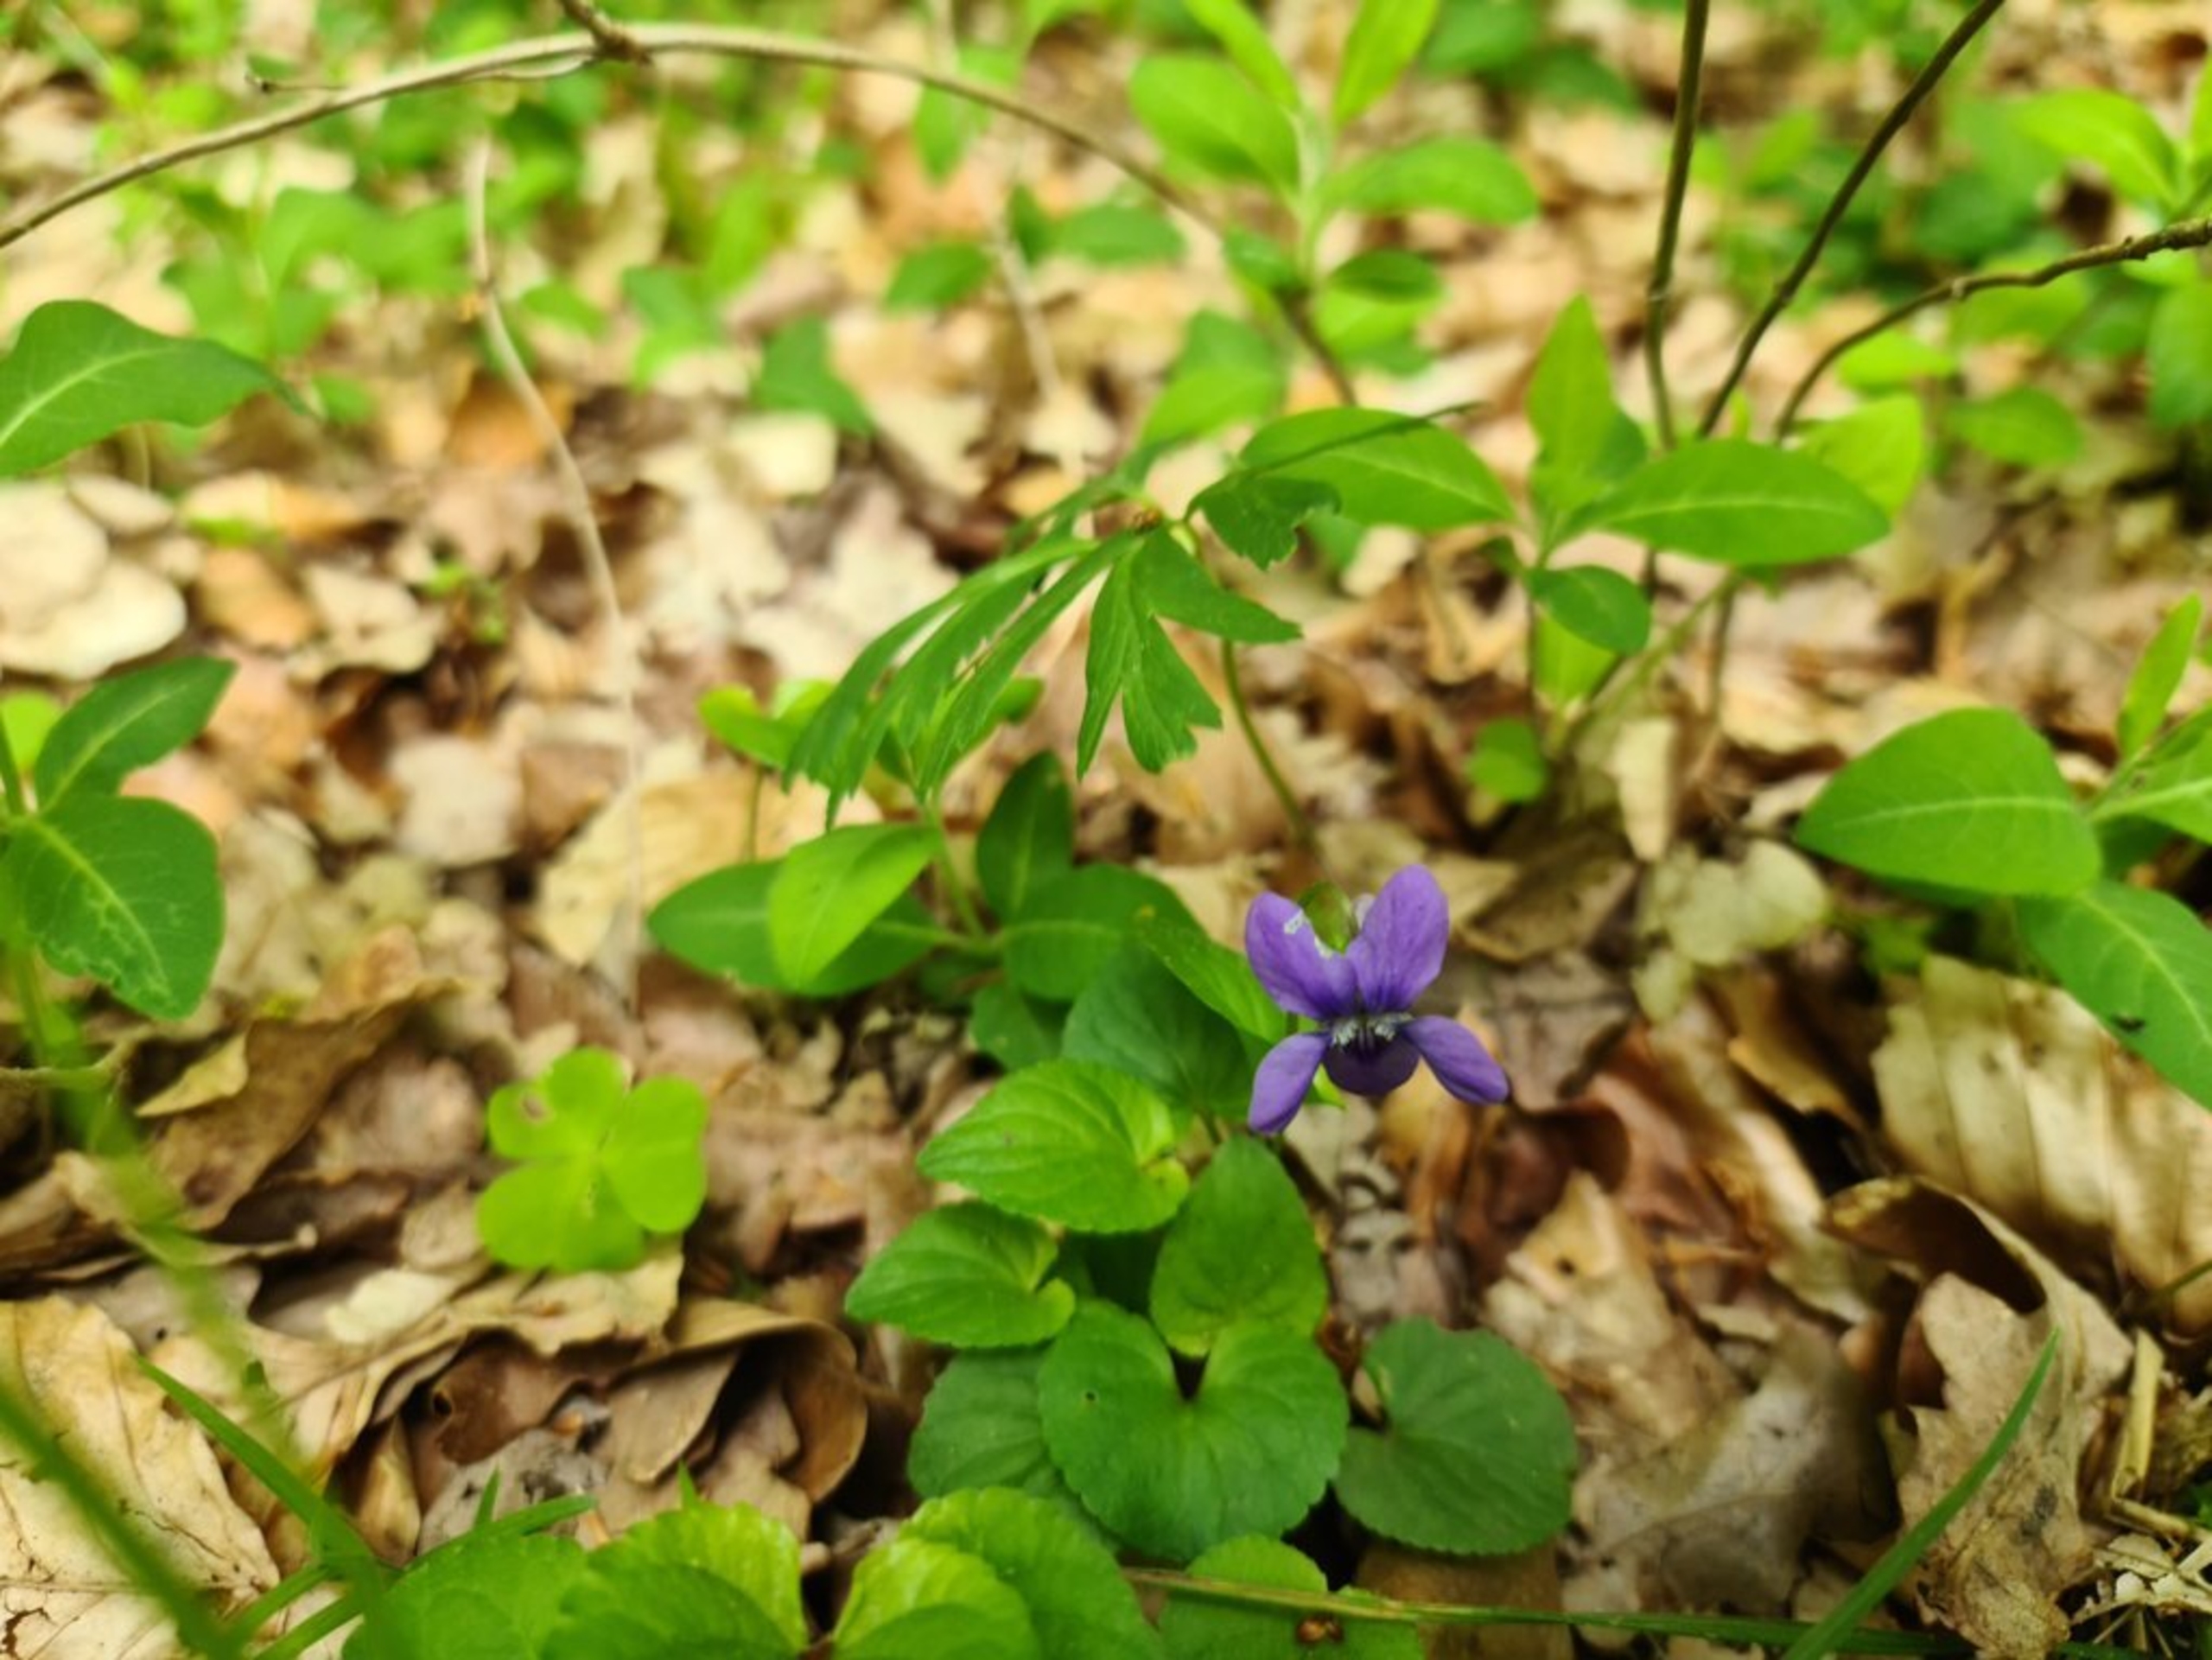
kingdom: Plantae
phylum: Tracheophyta
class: Magnoliopsida
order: Malpighiales
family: Violaceae
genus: Viola
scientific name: Viola riviniana
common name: Krat-viol
